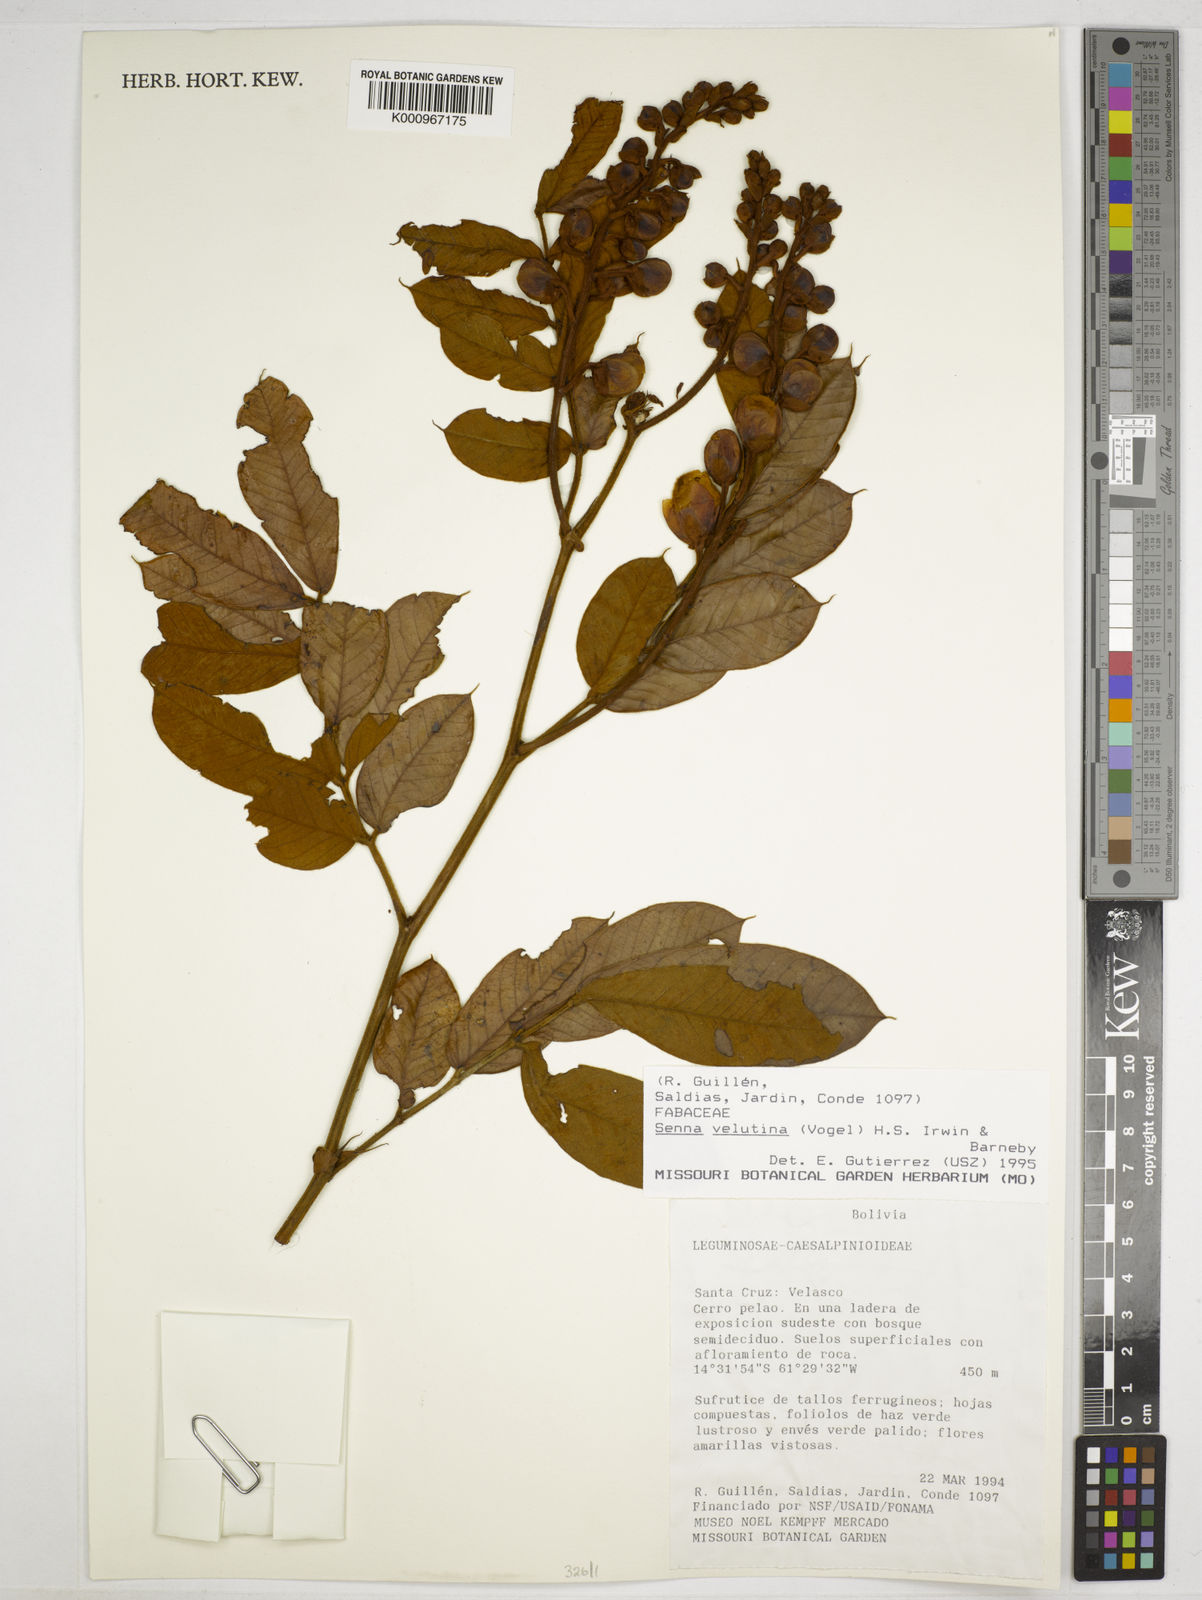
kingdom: Plantae
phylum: Tracheophyta
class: Magnoliopsida
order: Fabales
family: Fabaceae
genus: Senna
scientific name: Senna velutina
